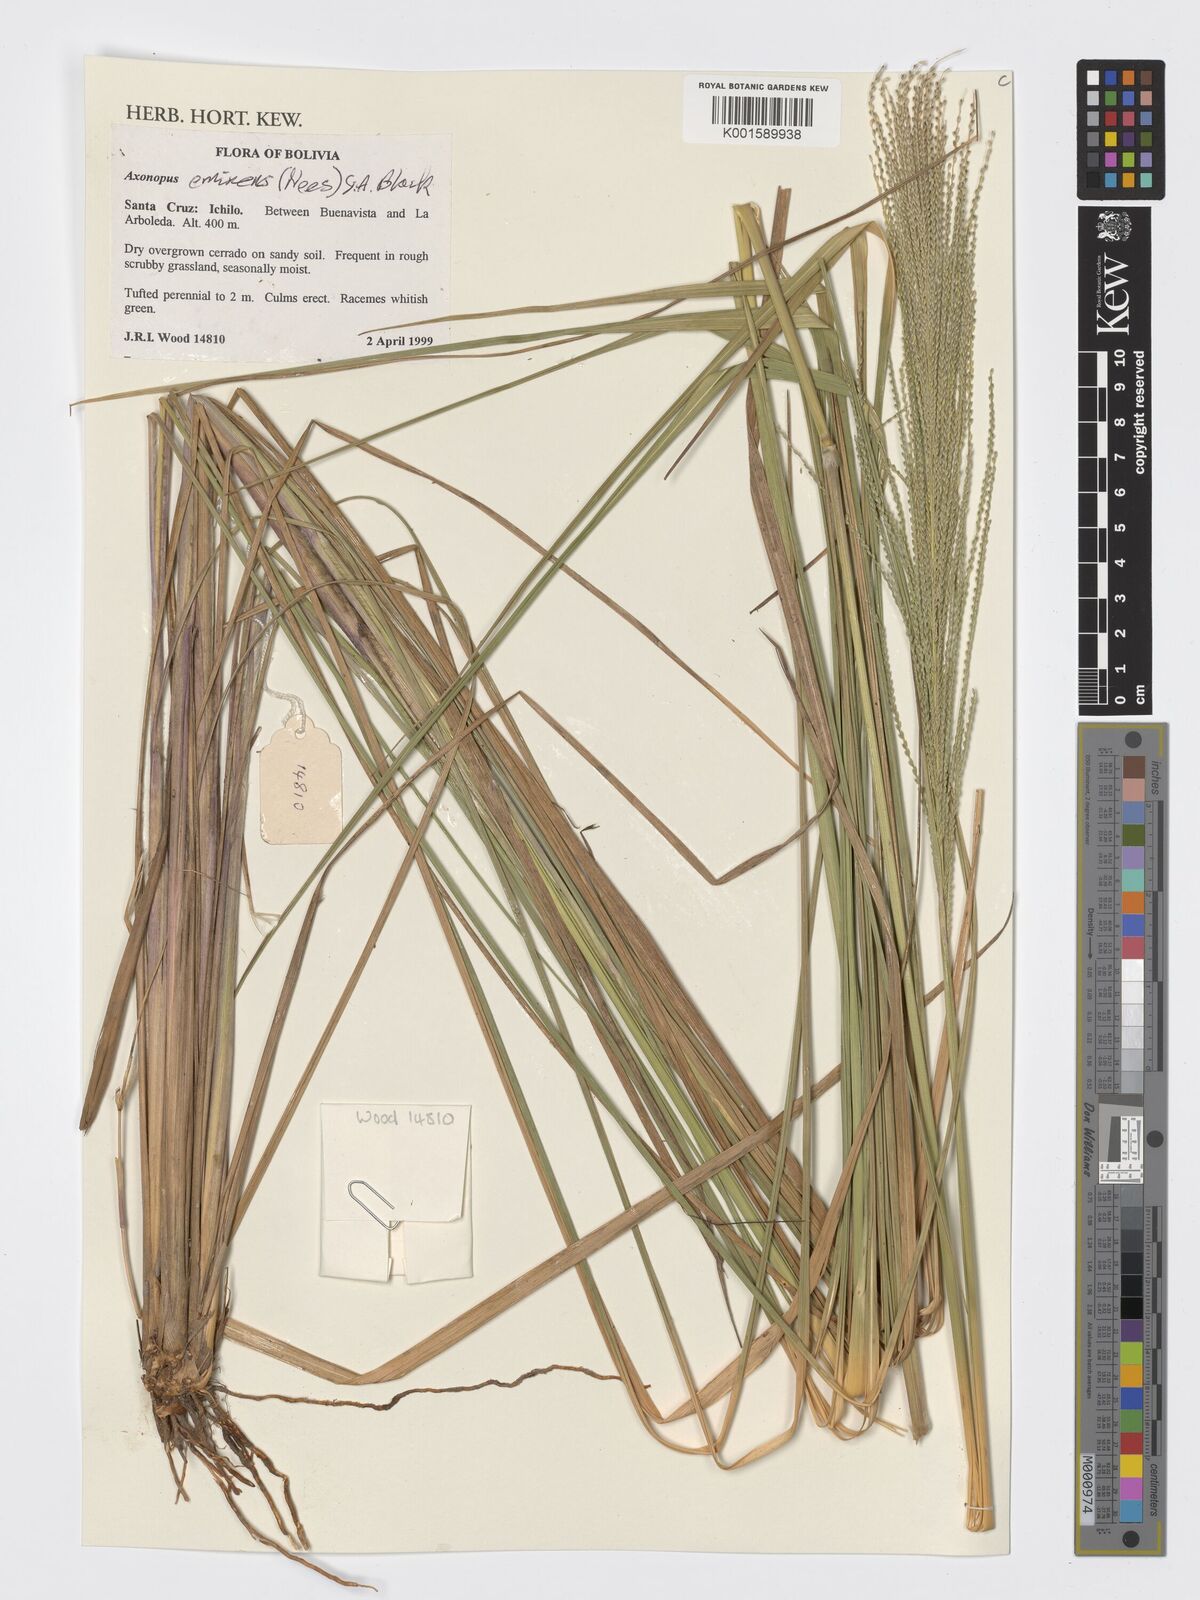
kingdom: Plantae
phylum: Tracheophyta
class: Liliopsida
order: Poales
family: Poaceae
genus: Axonopus
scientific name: Axonopus eminens
